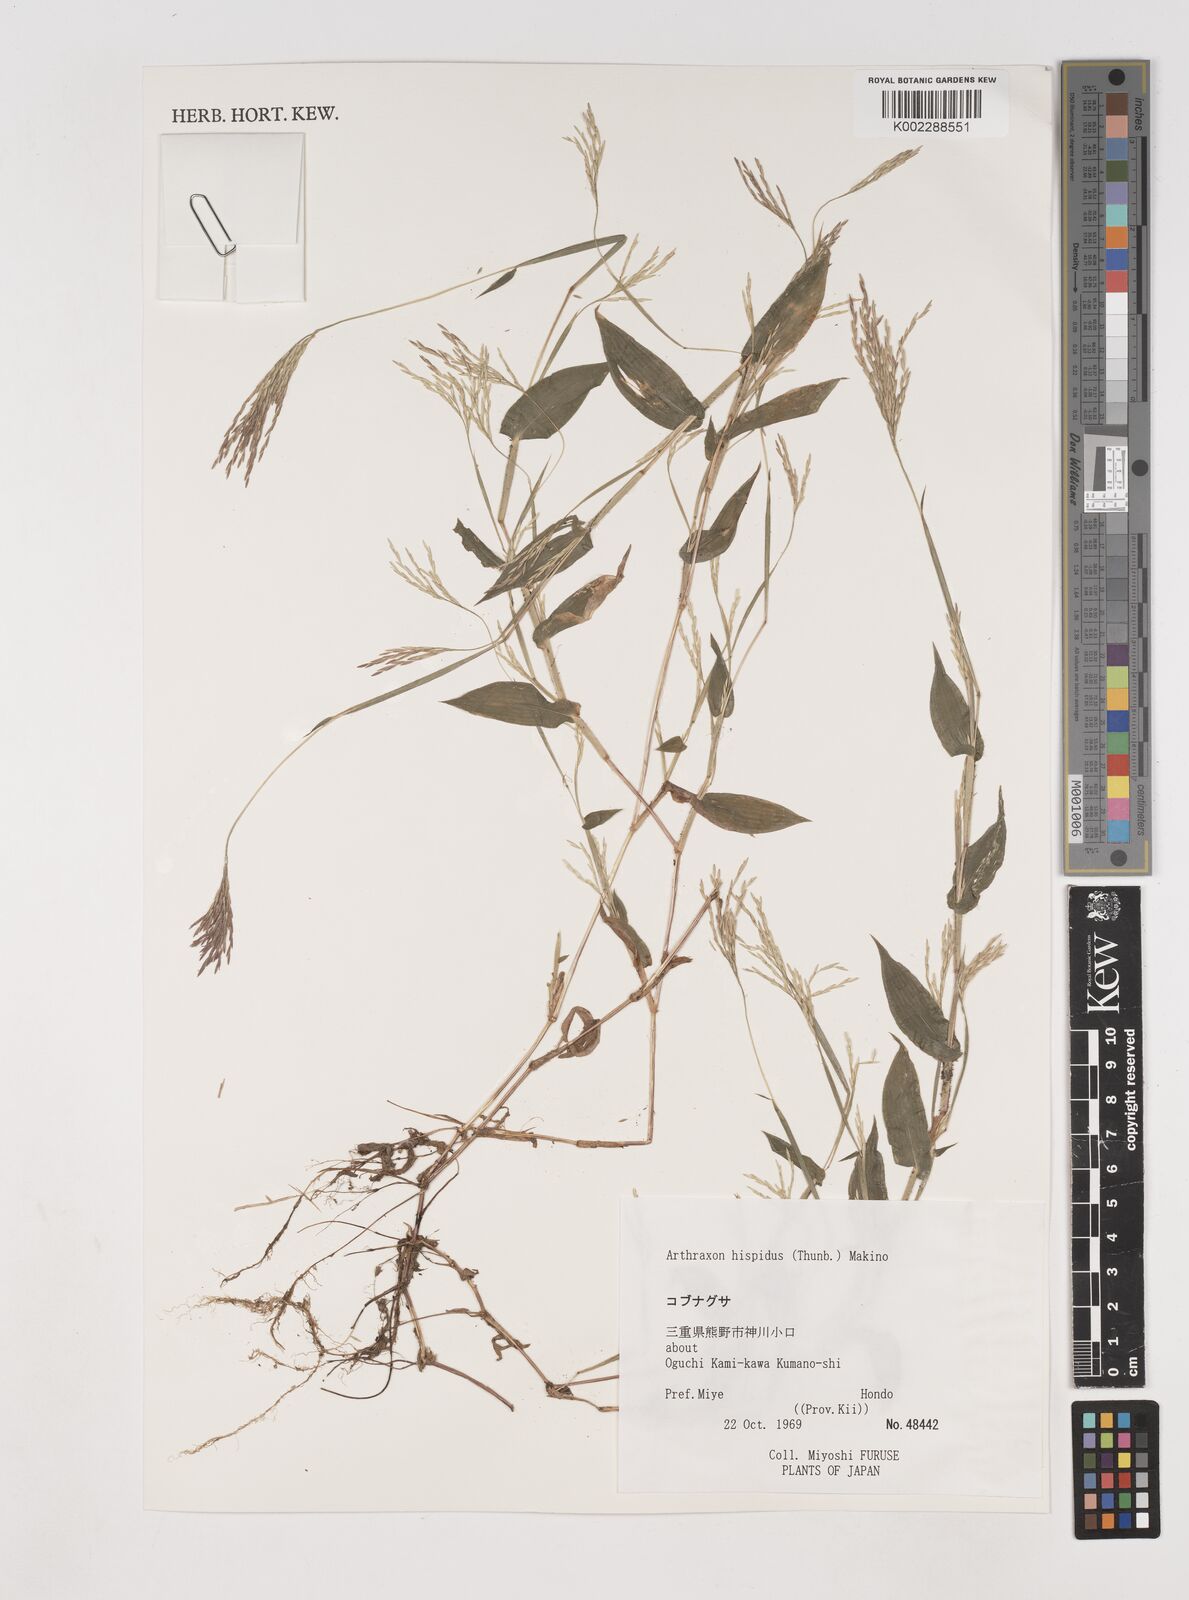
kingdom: Plantae
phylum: Tracheophyta
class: Liliopsida
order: Poales
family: Poaceae
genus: Arthraxon
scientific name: Arthraxon hispidus
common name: Small carpgrass
